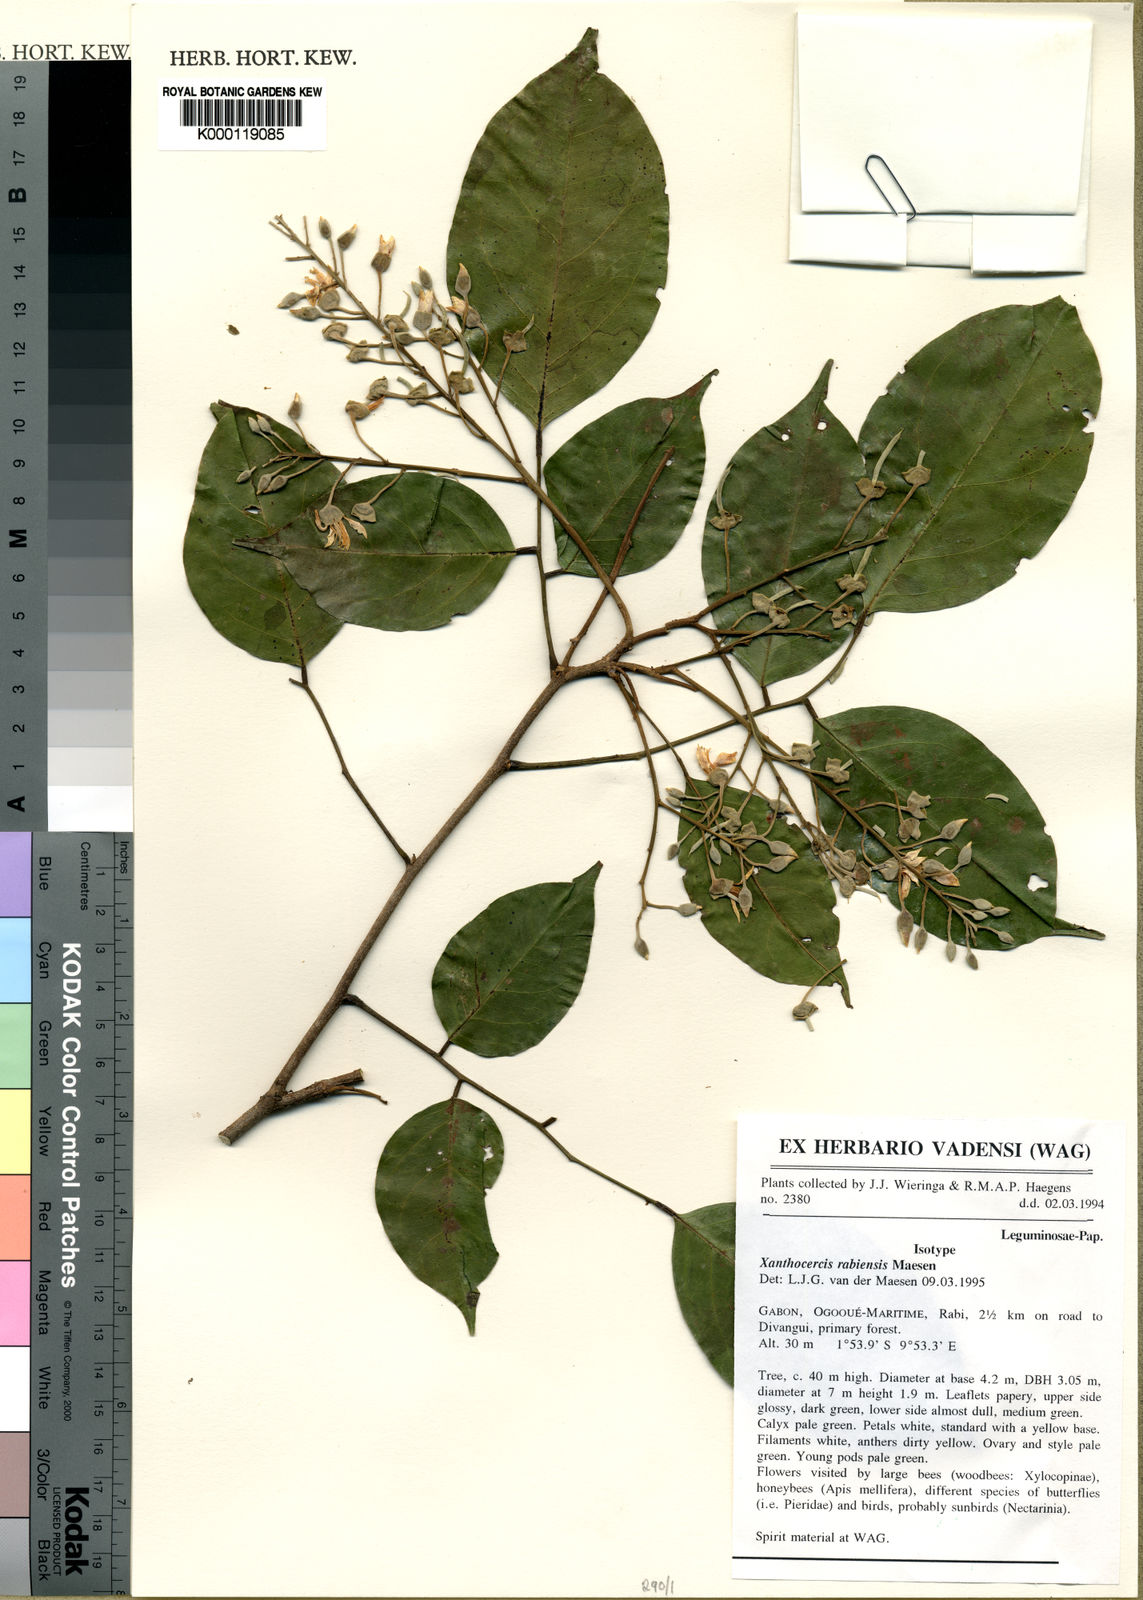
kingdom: Plantae
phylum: Tracheophyta
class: Magnoliopsida
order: Fabales
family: Fabaceae
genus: Xanthocercis
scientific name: Xanthocercis rabiensis
